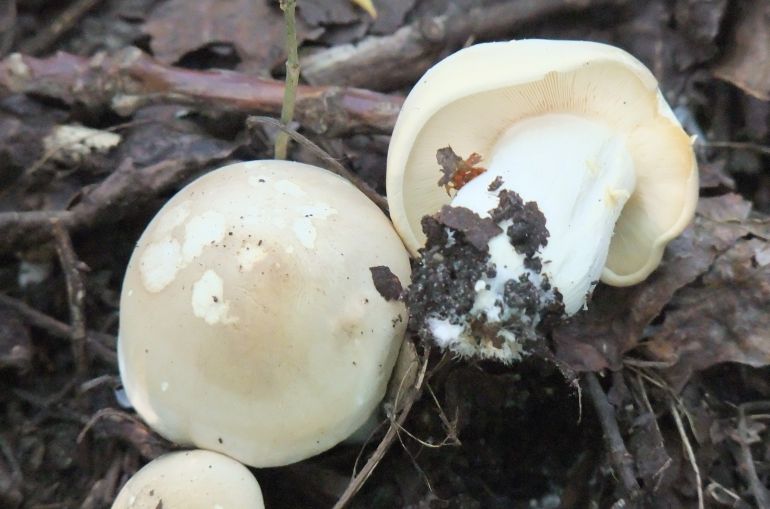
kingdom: Fungi
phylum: Basidiomycota
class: Agaricomycetes
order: Agaricales
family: Lyophyllaceae
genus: Calocybe
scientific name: Calocybe gambosa
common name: vårmusseron
